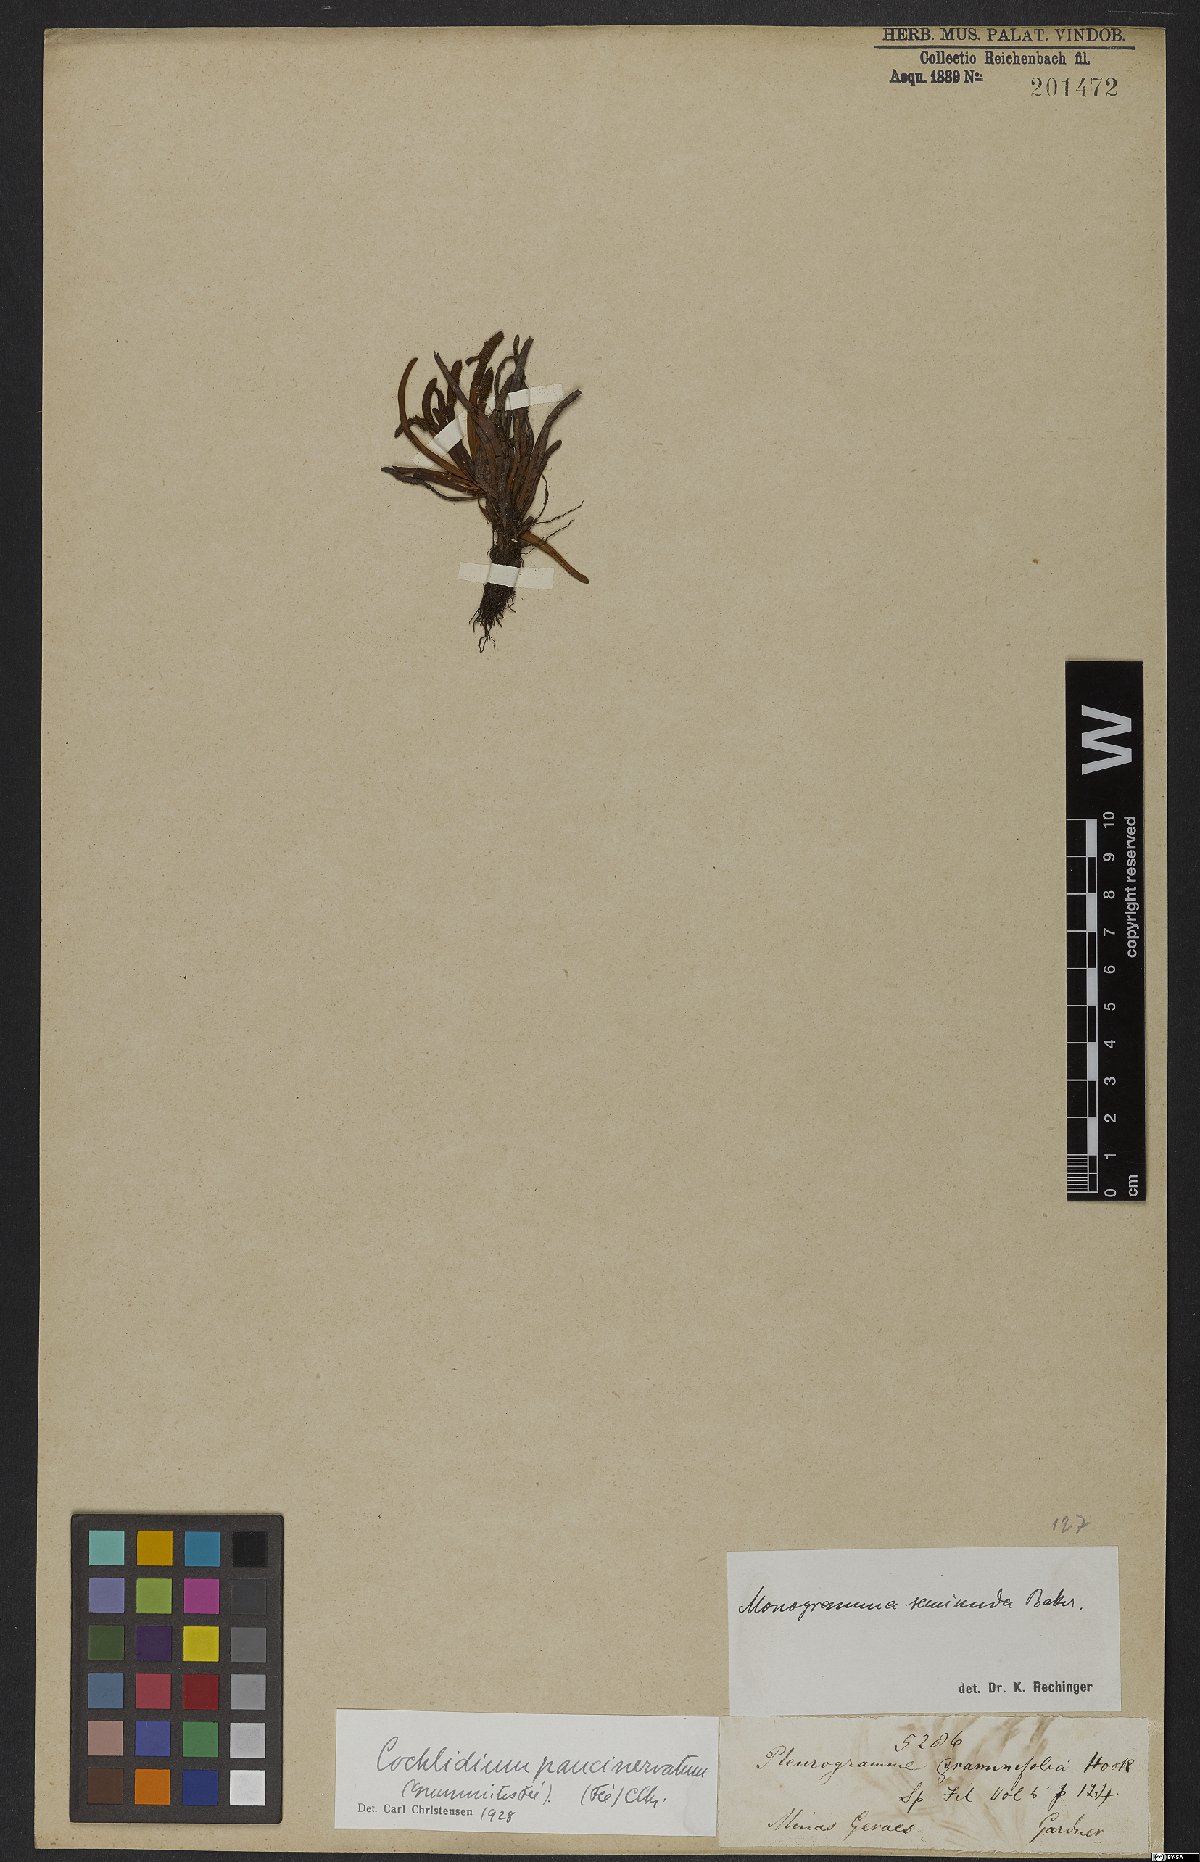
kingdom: Plantae
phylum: Tracheophyta
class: Polypodiopsida
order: Polypodiales
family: Polypodiaceae
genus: Cochlidium
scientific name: Cochlidium punctatum
